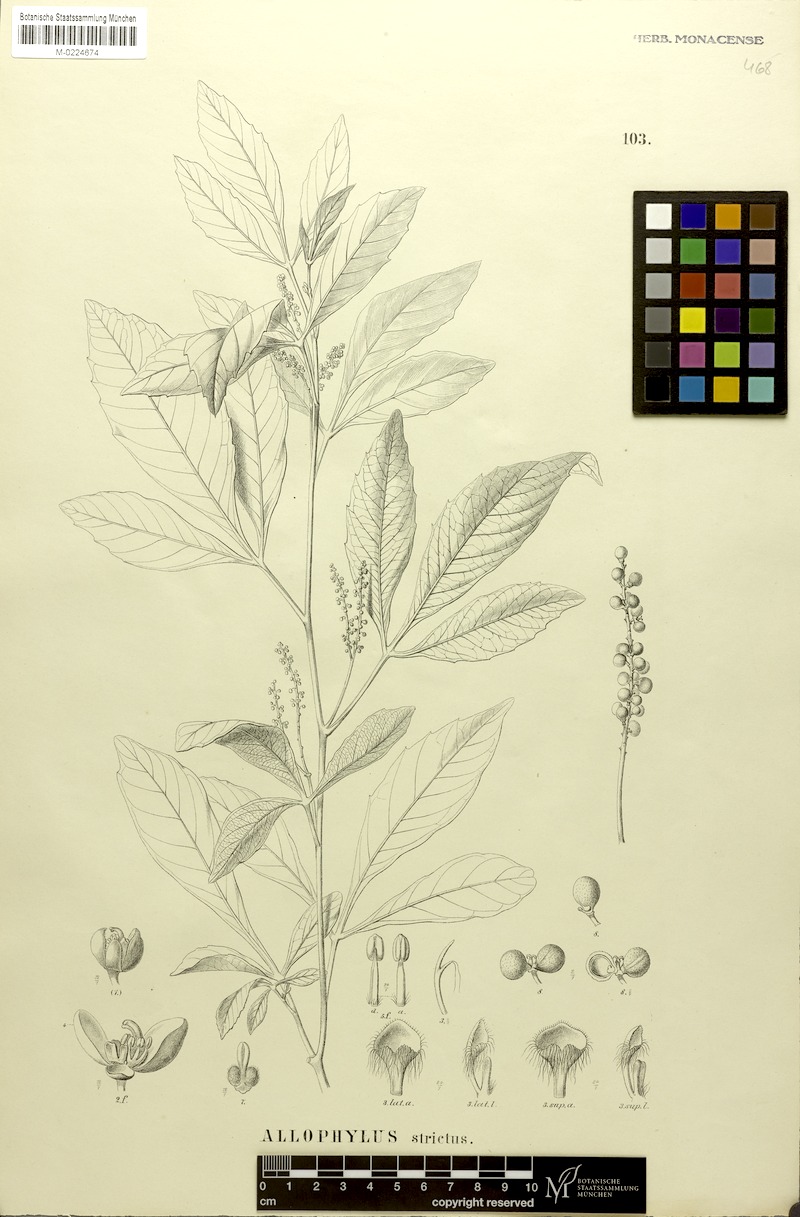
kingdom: Plantae
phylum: Tracheophyta
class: Magnoliopsida
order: Sapindales
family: Sapindaceae
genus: Allophylus
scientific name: Allophylus strictus
